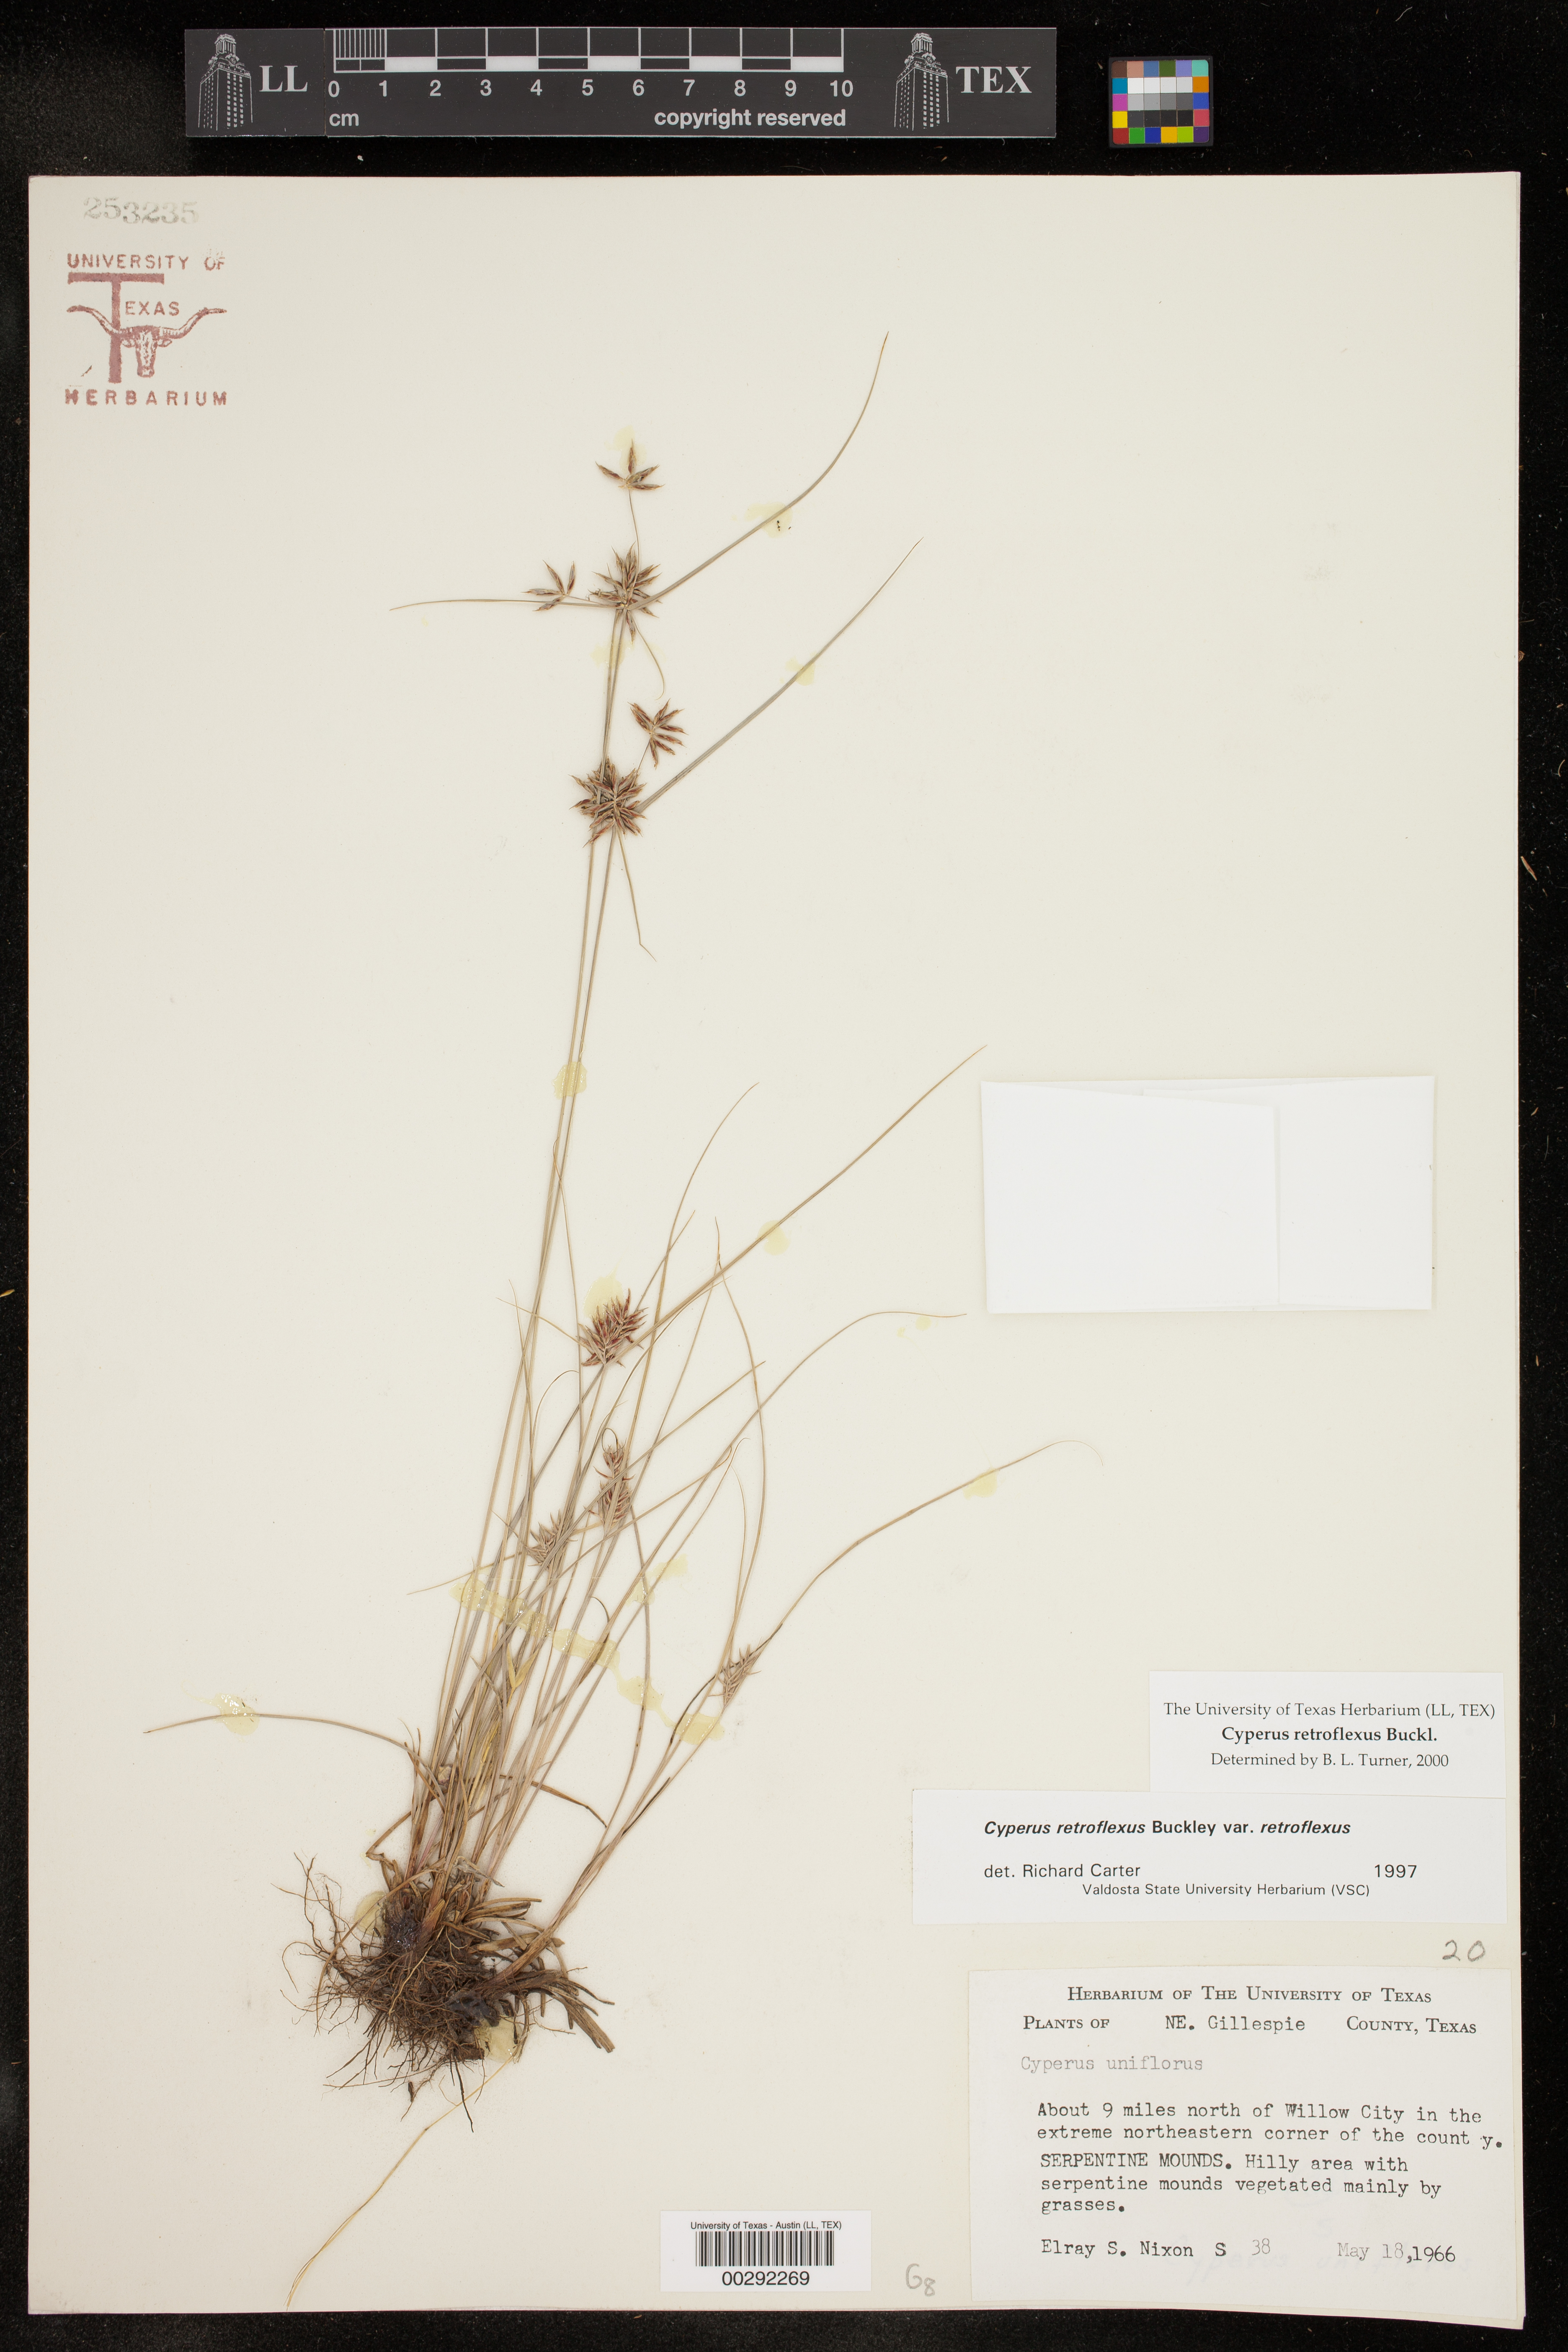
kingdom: Plantae
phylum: Tracheophyta
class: Liliopsida
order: Poales
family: Cyperaceae
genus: Cyperus
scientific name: Cyperus retroflexus
